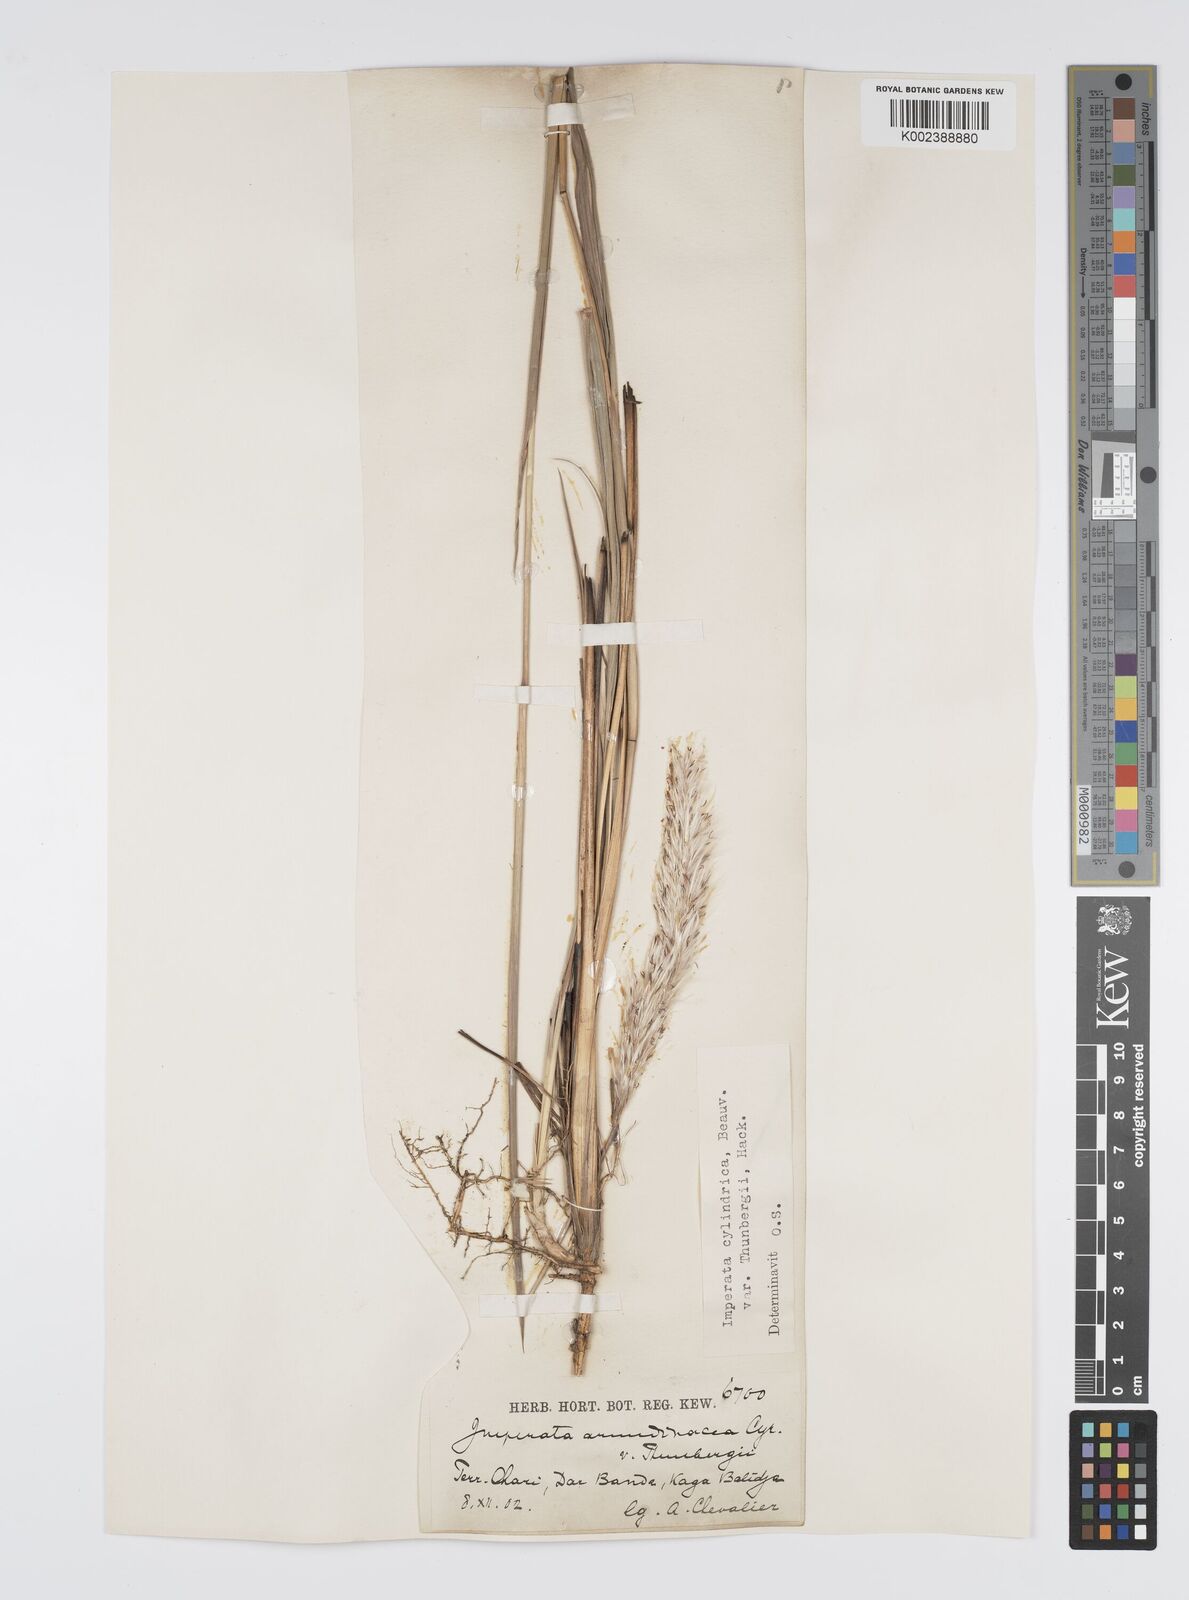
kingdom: Plantae
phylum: Tracheophyta
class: Liliopsida
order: Poales
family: Poaceae
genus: Imperata
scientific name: Imperata cylindrica
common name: Cogongrass
